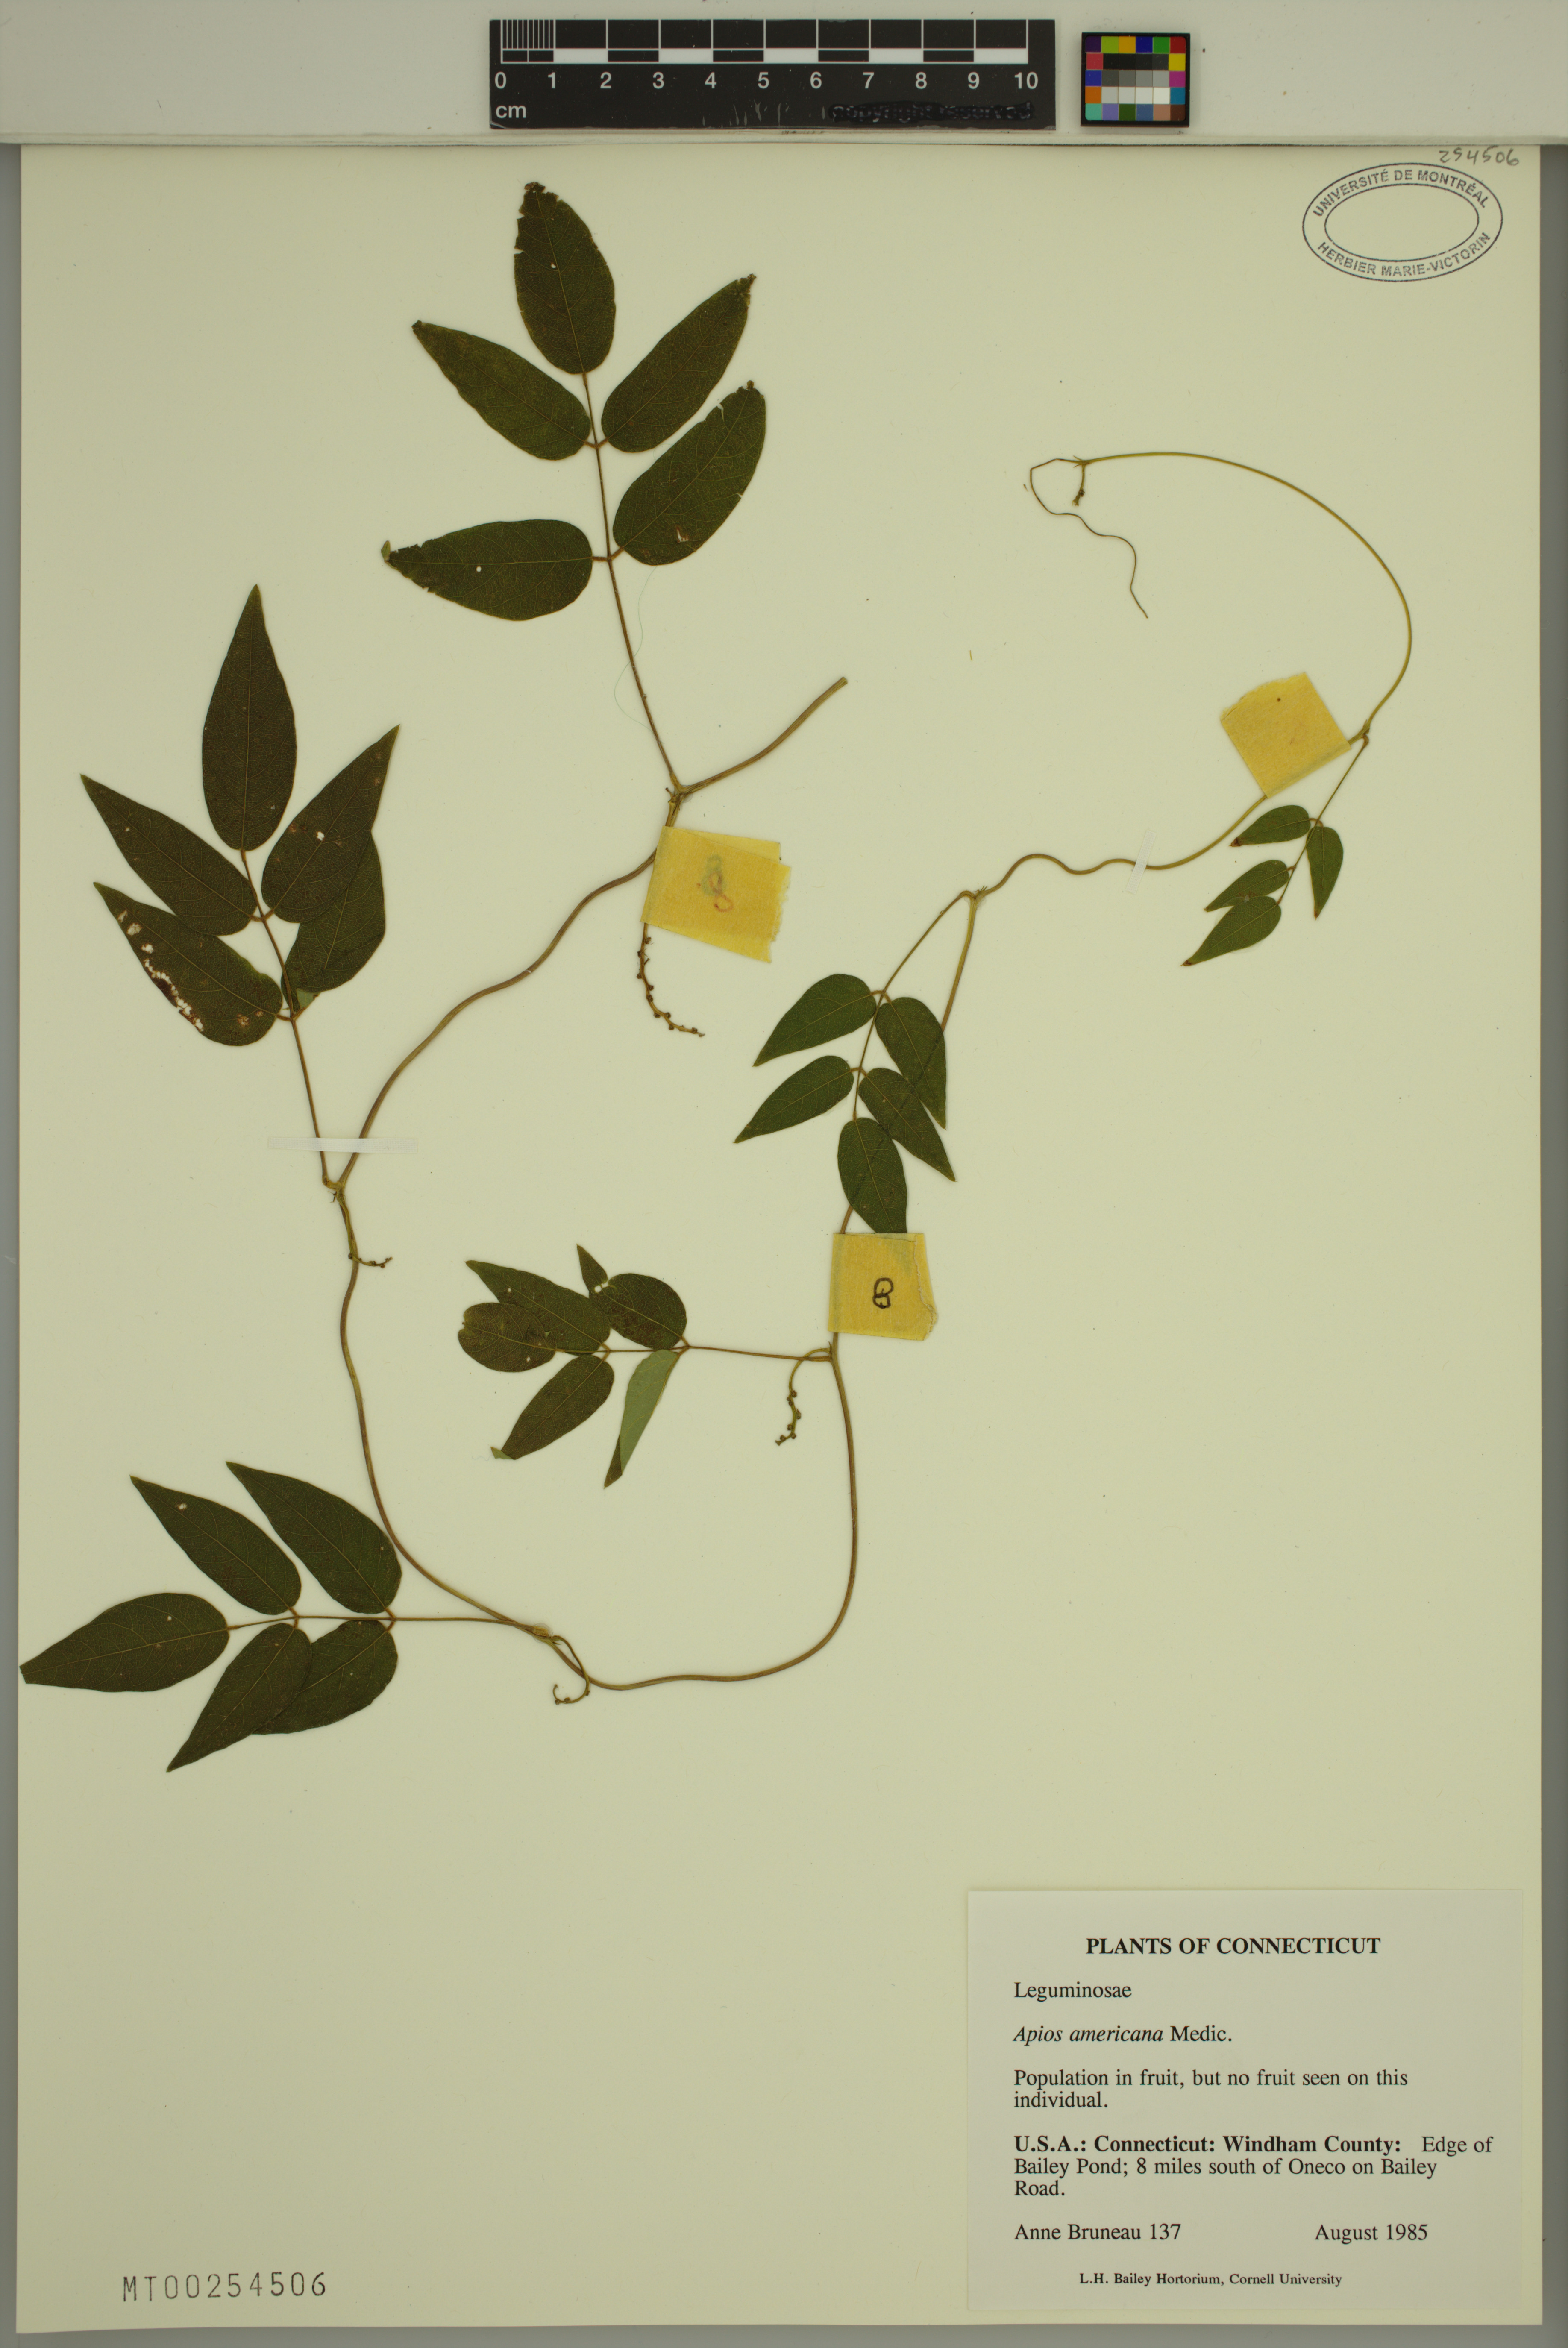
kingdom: Plantae
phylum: Tracheophyta
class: Magnoliopsida
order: Fabales
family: Fabaceae
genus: Apios
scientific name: Apios americana
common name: American potato-bean
